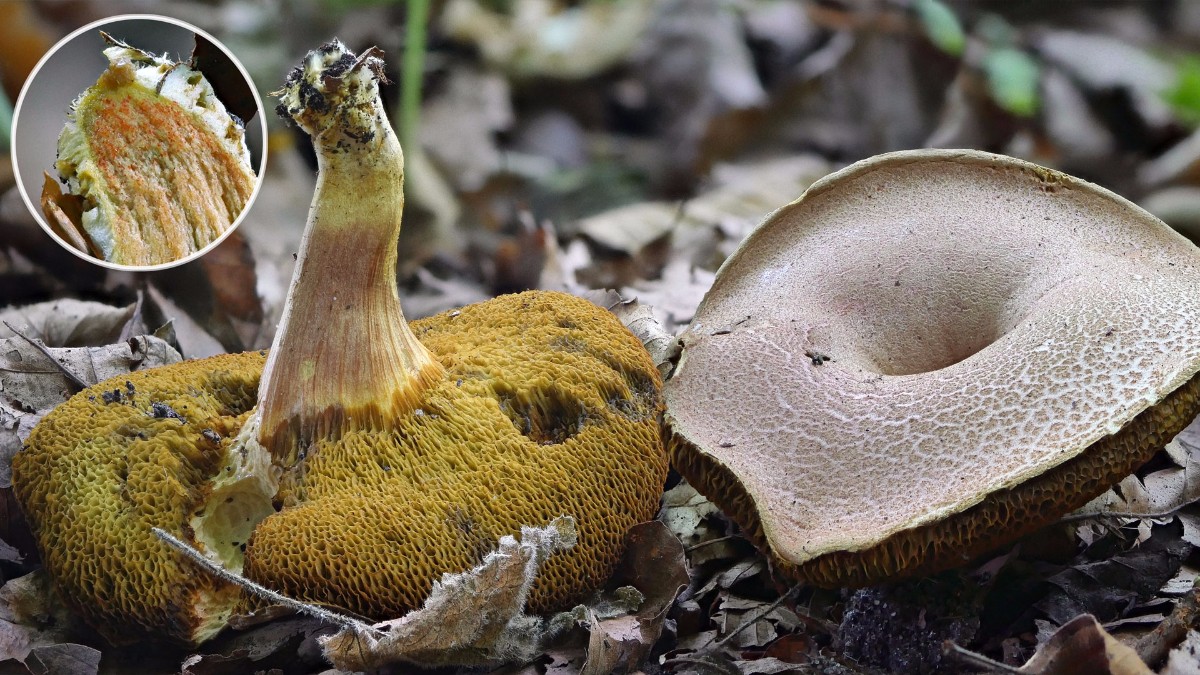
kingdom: Fungi
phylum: Basidiomycota
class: Agaricomycetes
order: Boletales
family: Boletaceae
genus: Hortiboletus
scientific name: Hortiboletus engelii
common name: fersken-rørhat
